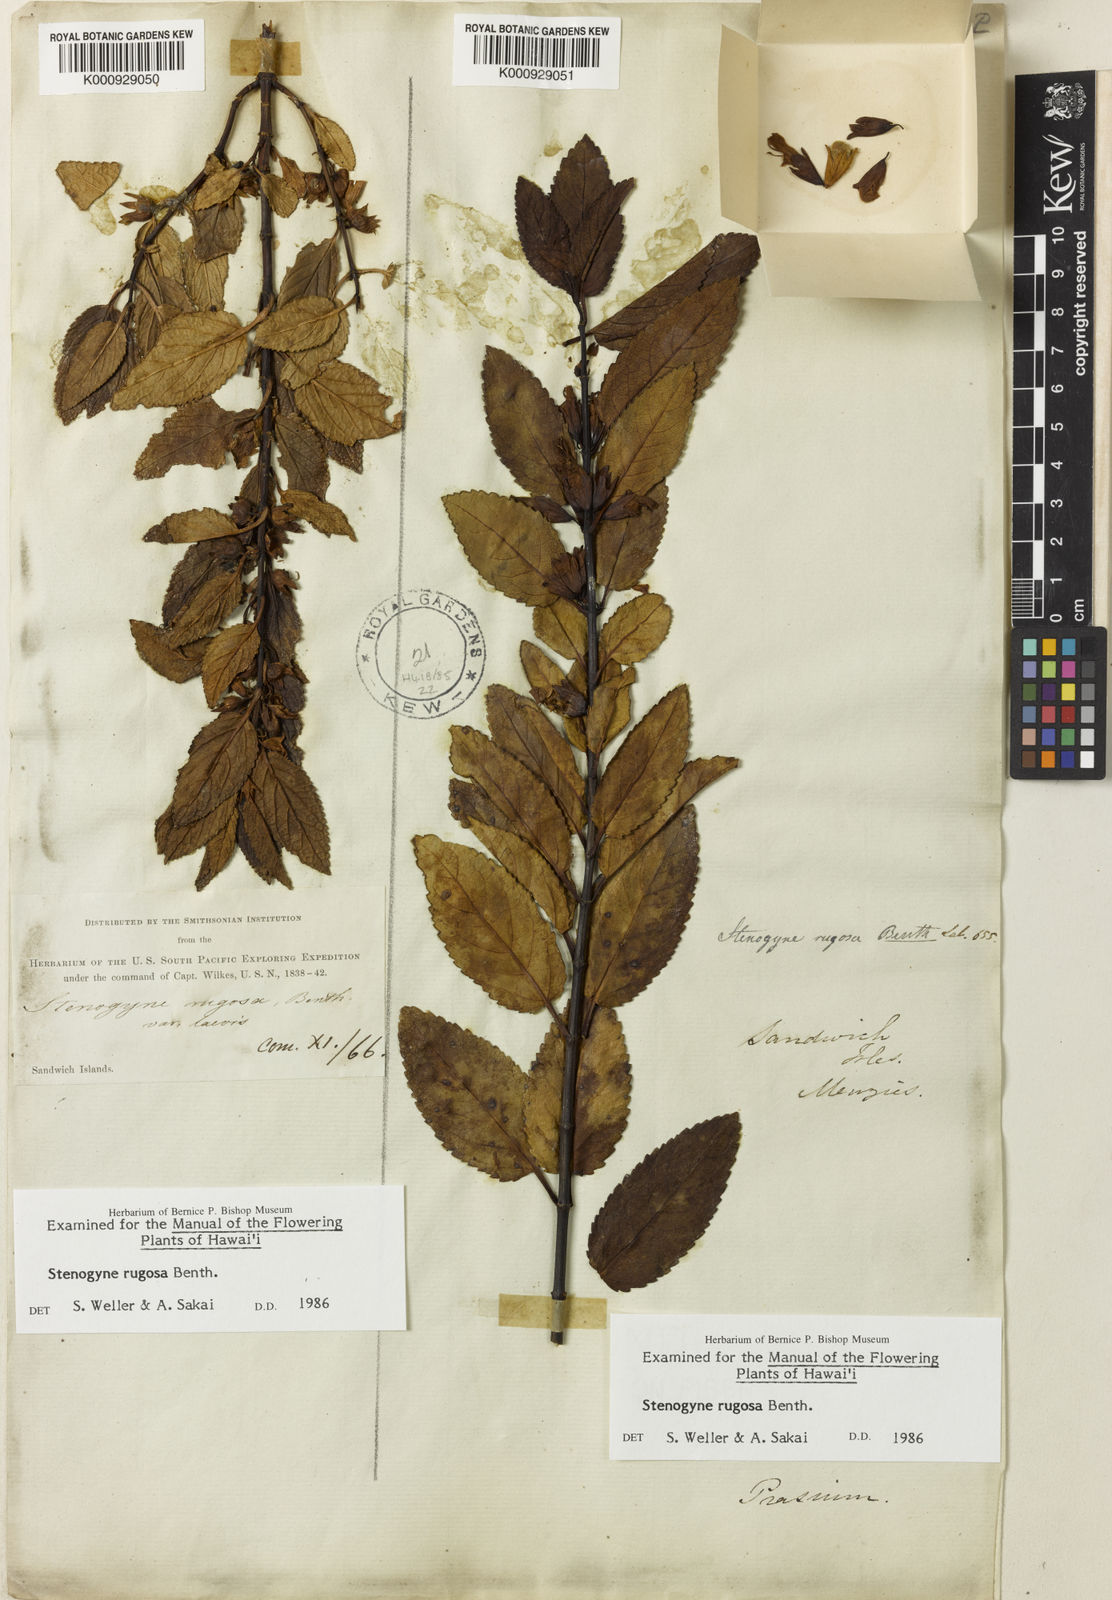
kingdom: Plantae
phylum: Tracheophyta
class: Magnoliopsida
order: Lamiales
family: Lamiaceae
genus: Stenogyne
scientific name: Stenogyne rugosa
